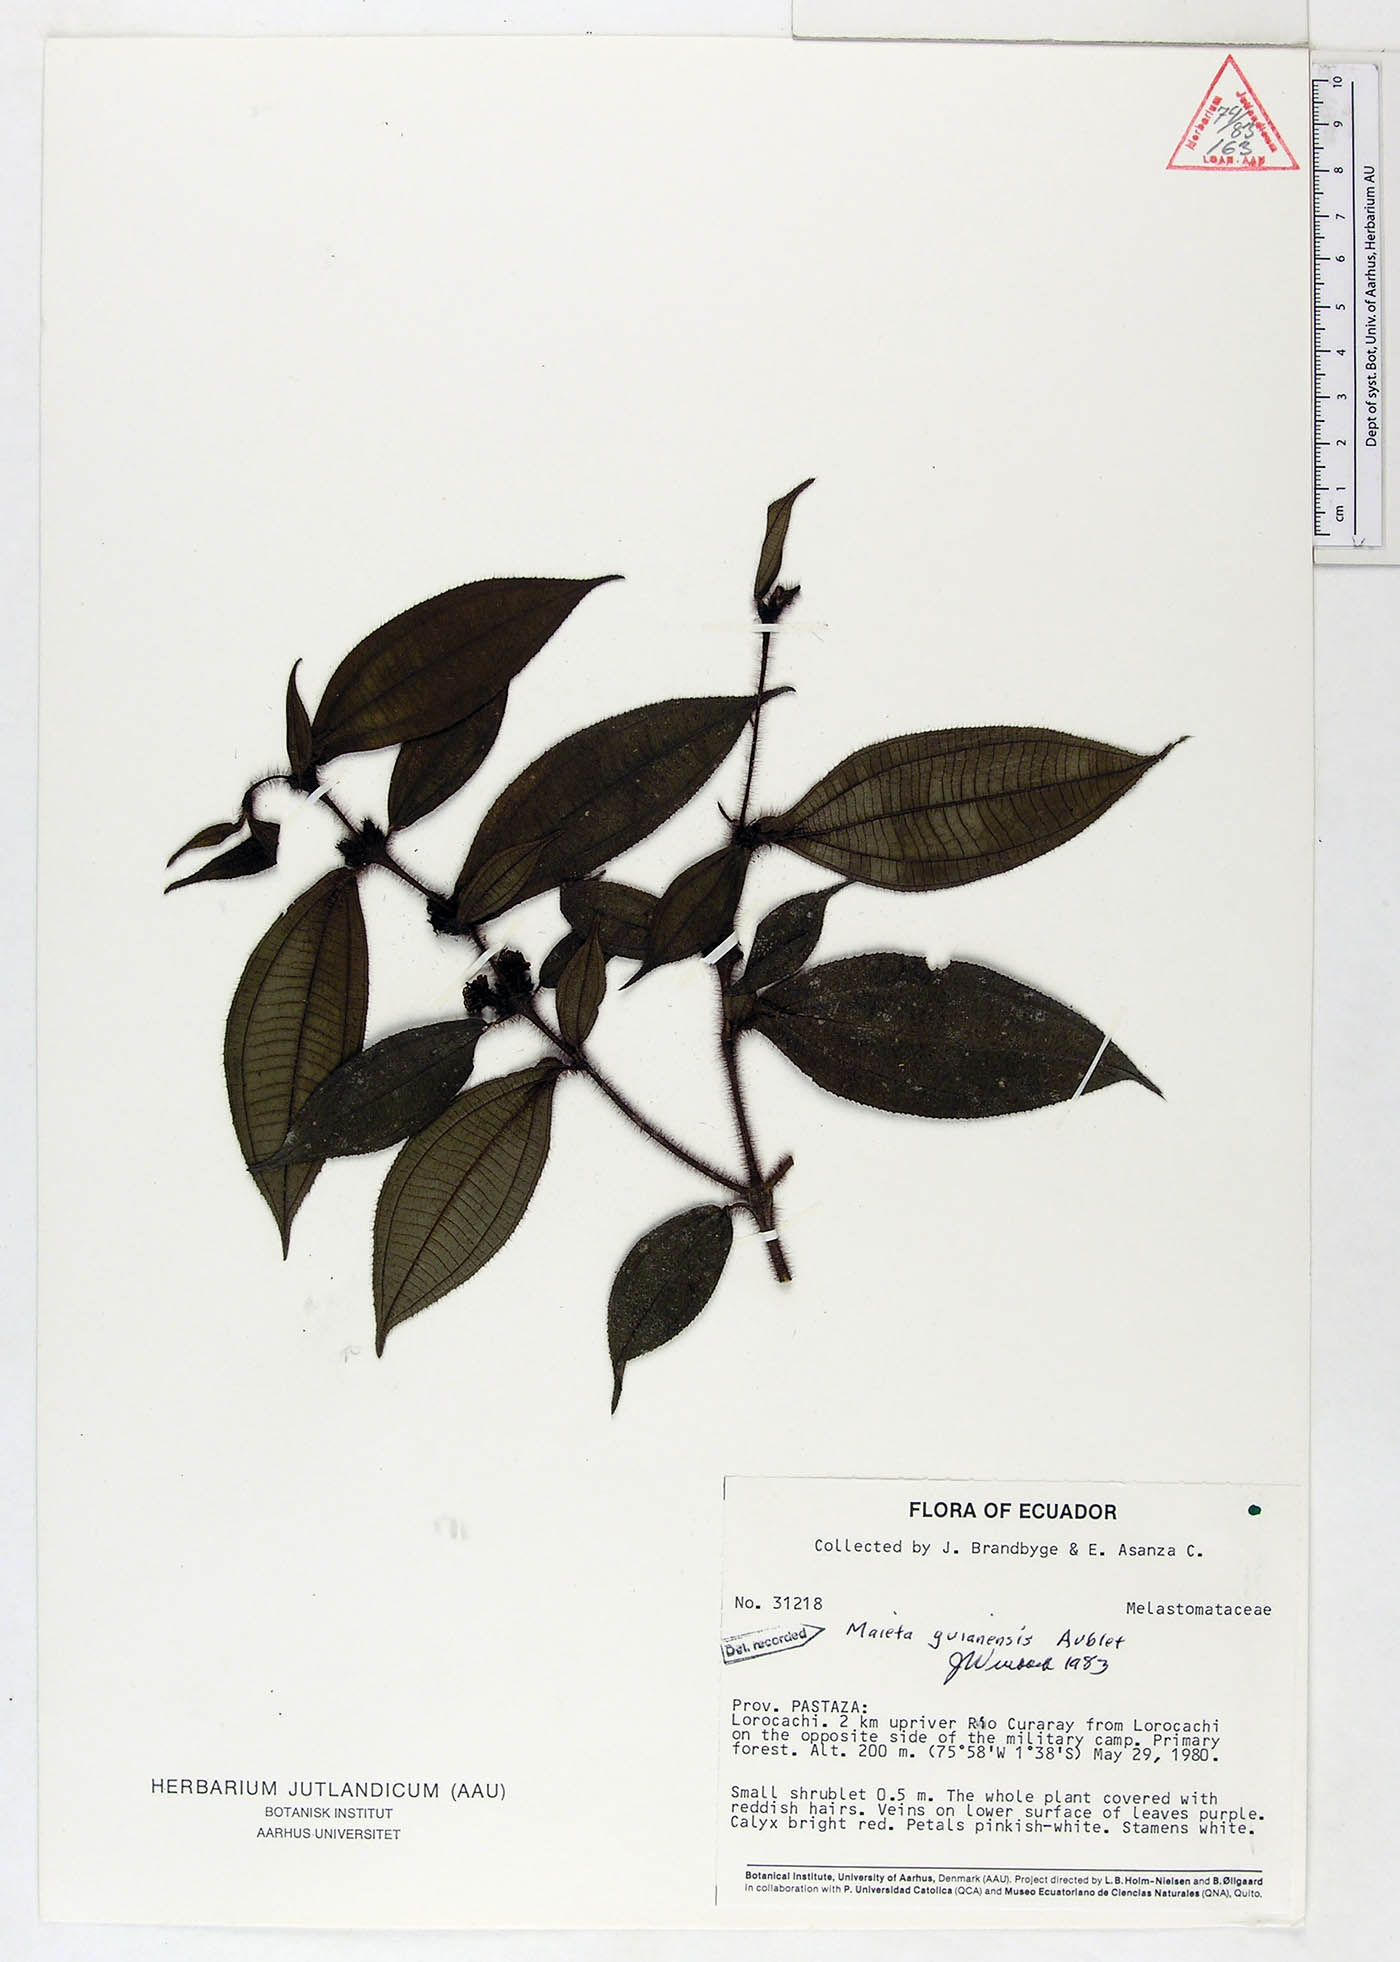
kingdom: Plantae
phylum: Tracheophyta
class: Magnoliopsida
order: Myrtales
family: Melastomataceae
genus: Miconia
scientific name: Miconia mayeta
